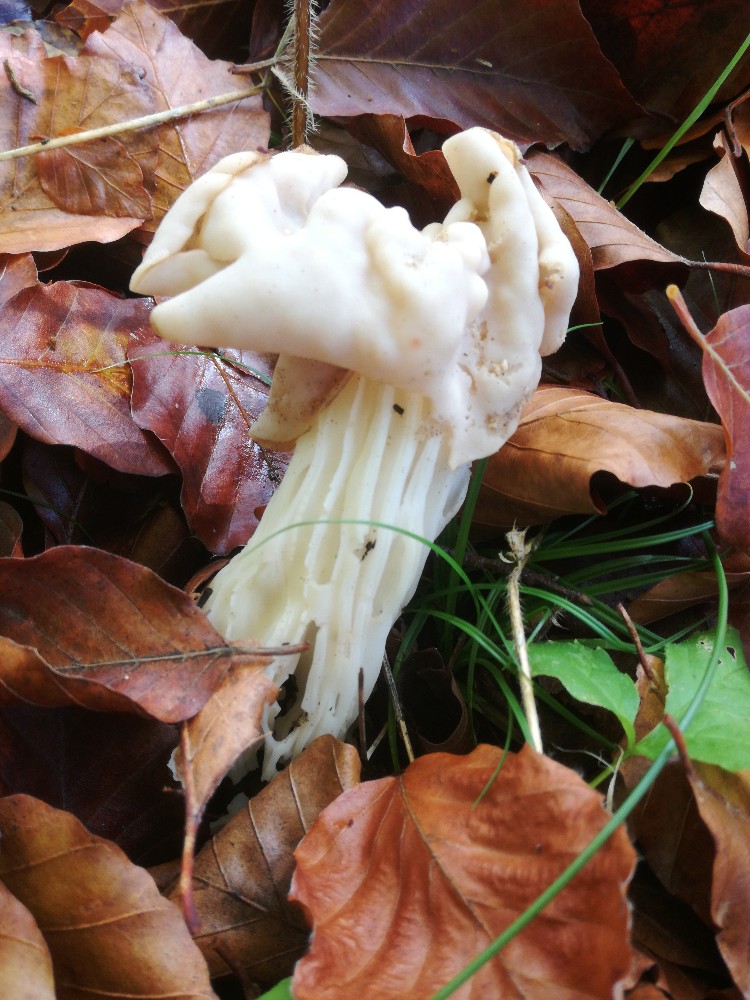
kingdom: Fungi
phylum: Ascomycota
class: Pezizomycetes
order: Pezizales
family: Helvellaceae
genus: Helvella
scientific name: Helvella crispa
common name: kruset foldhat
